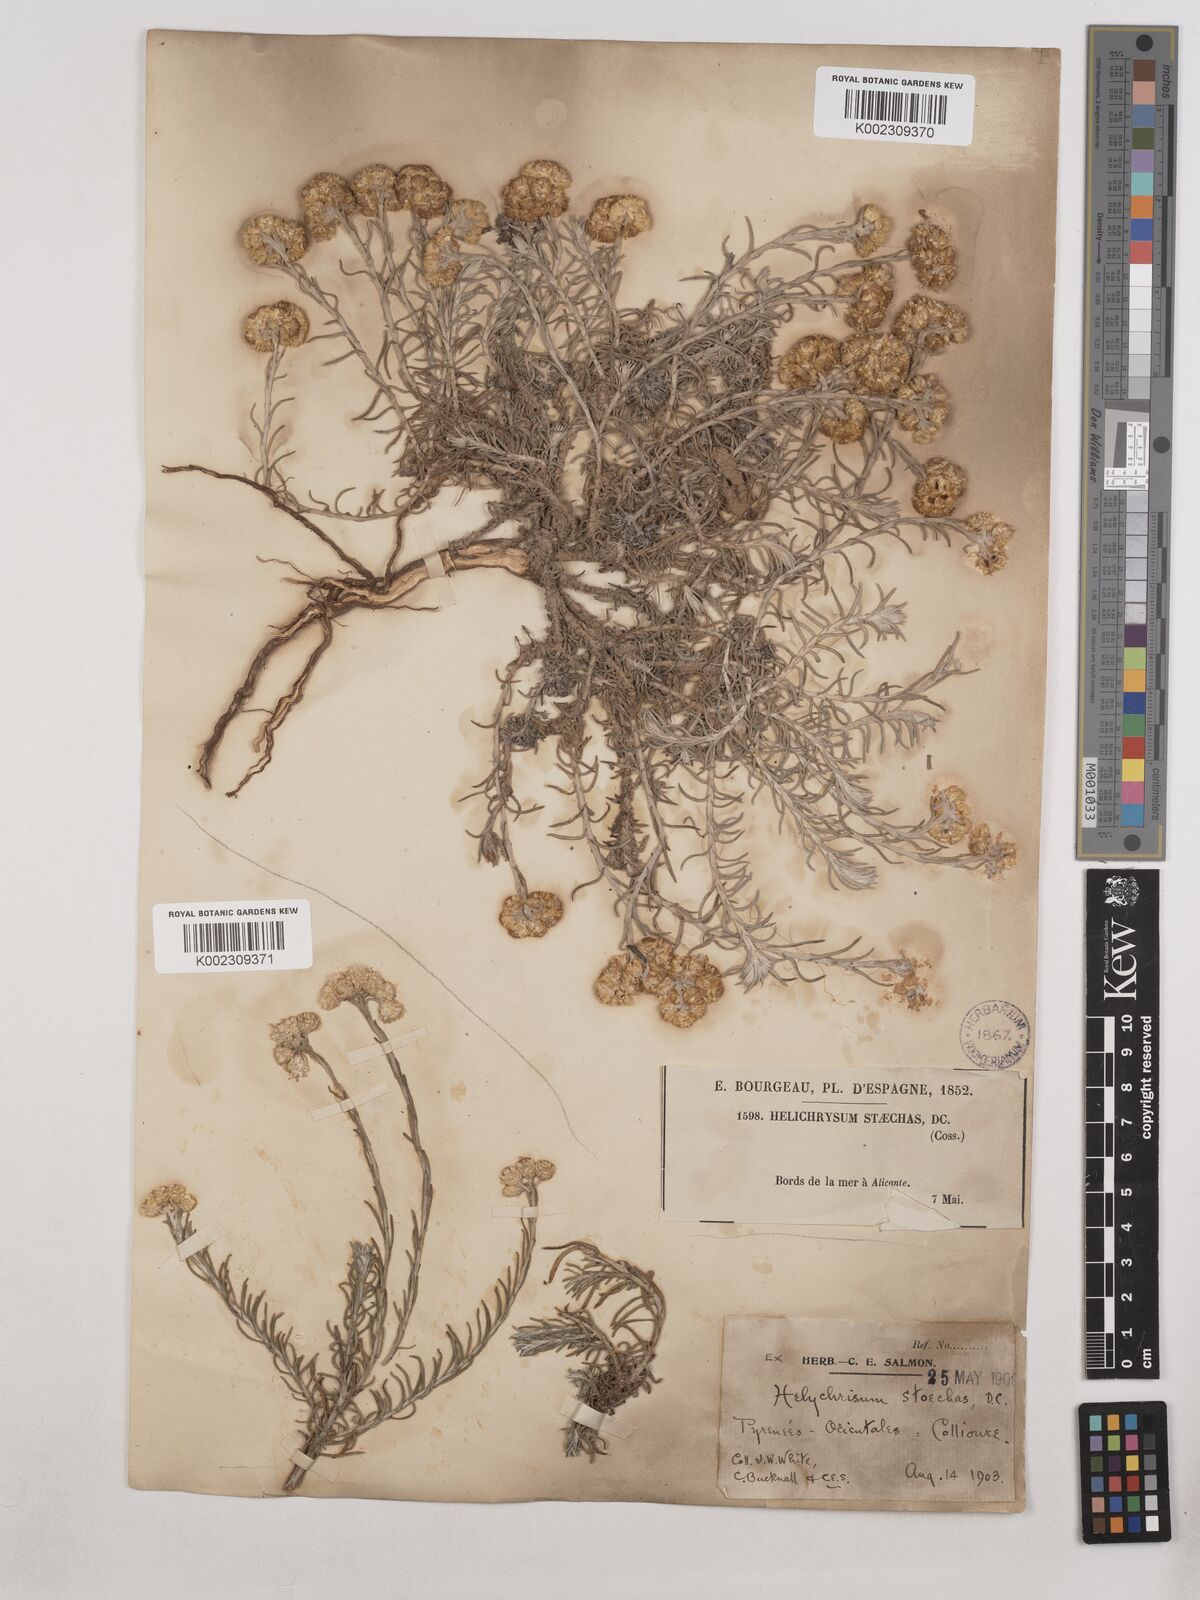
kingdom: Plantae
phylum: Tracheophyta
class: Magnoliopsida
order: Asterales
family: Asteraceae
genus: Helichrysum
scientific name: Helichrysum
